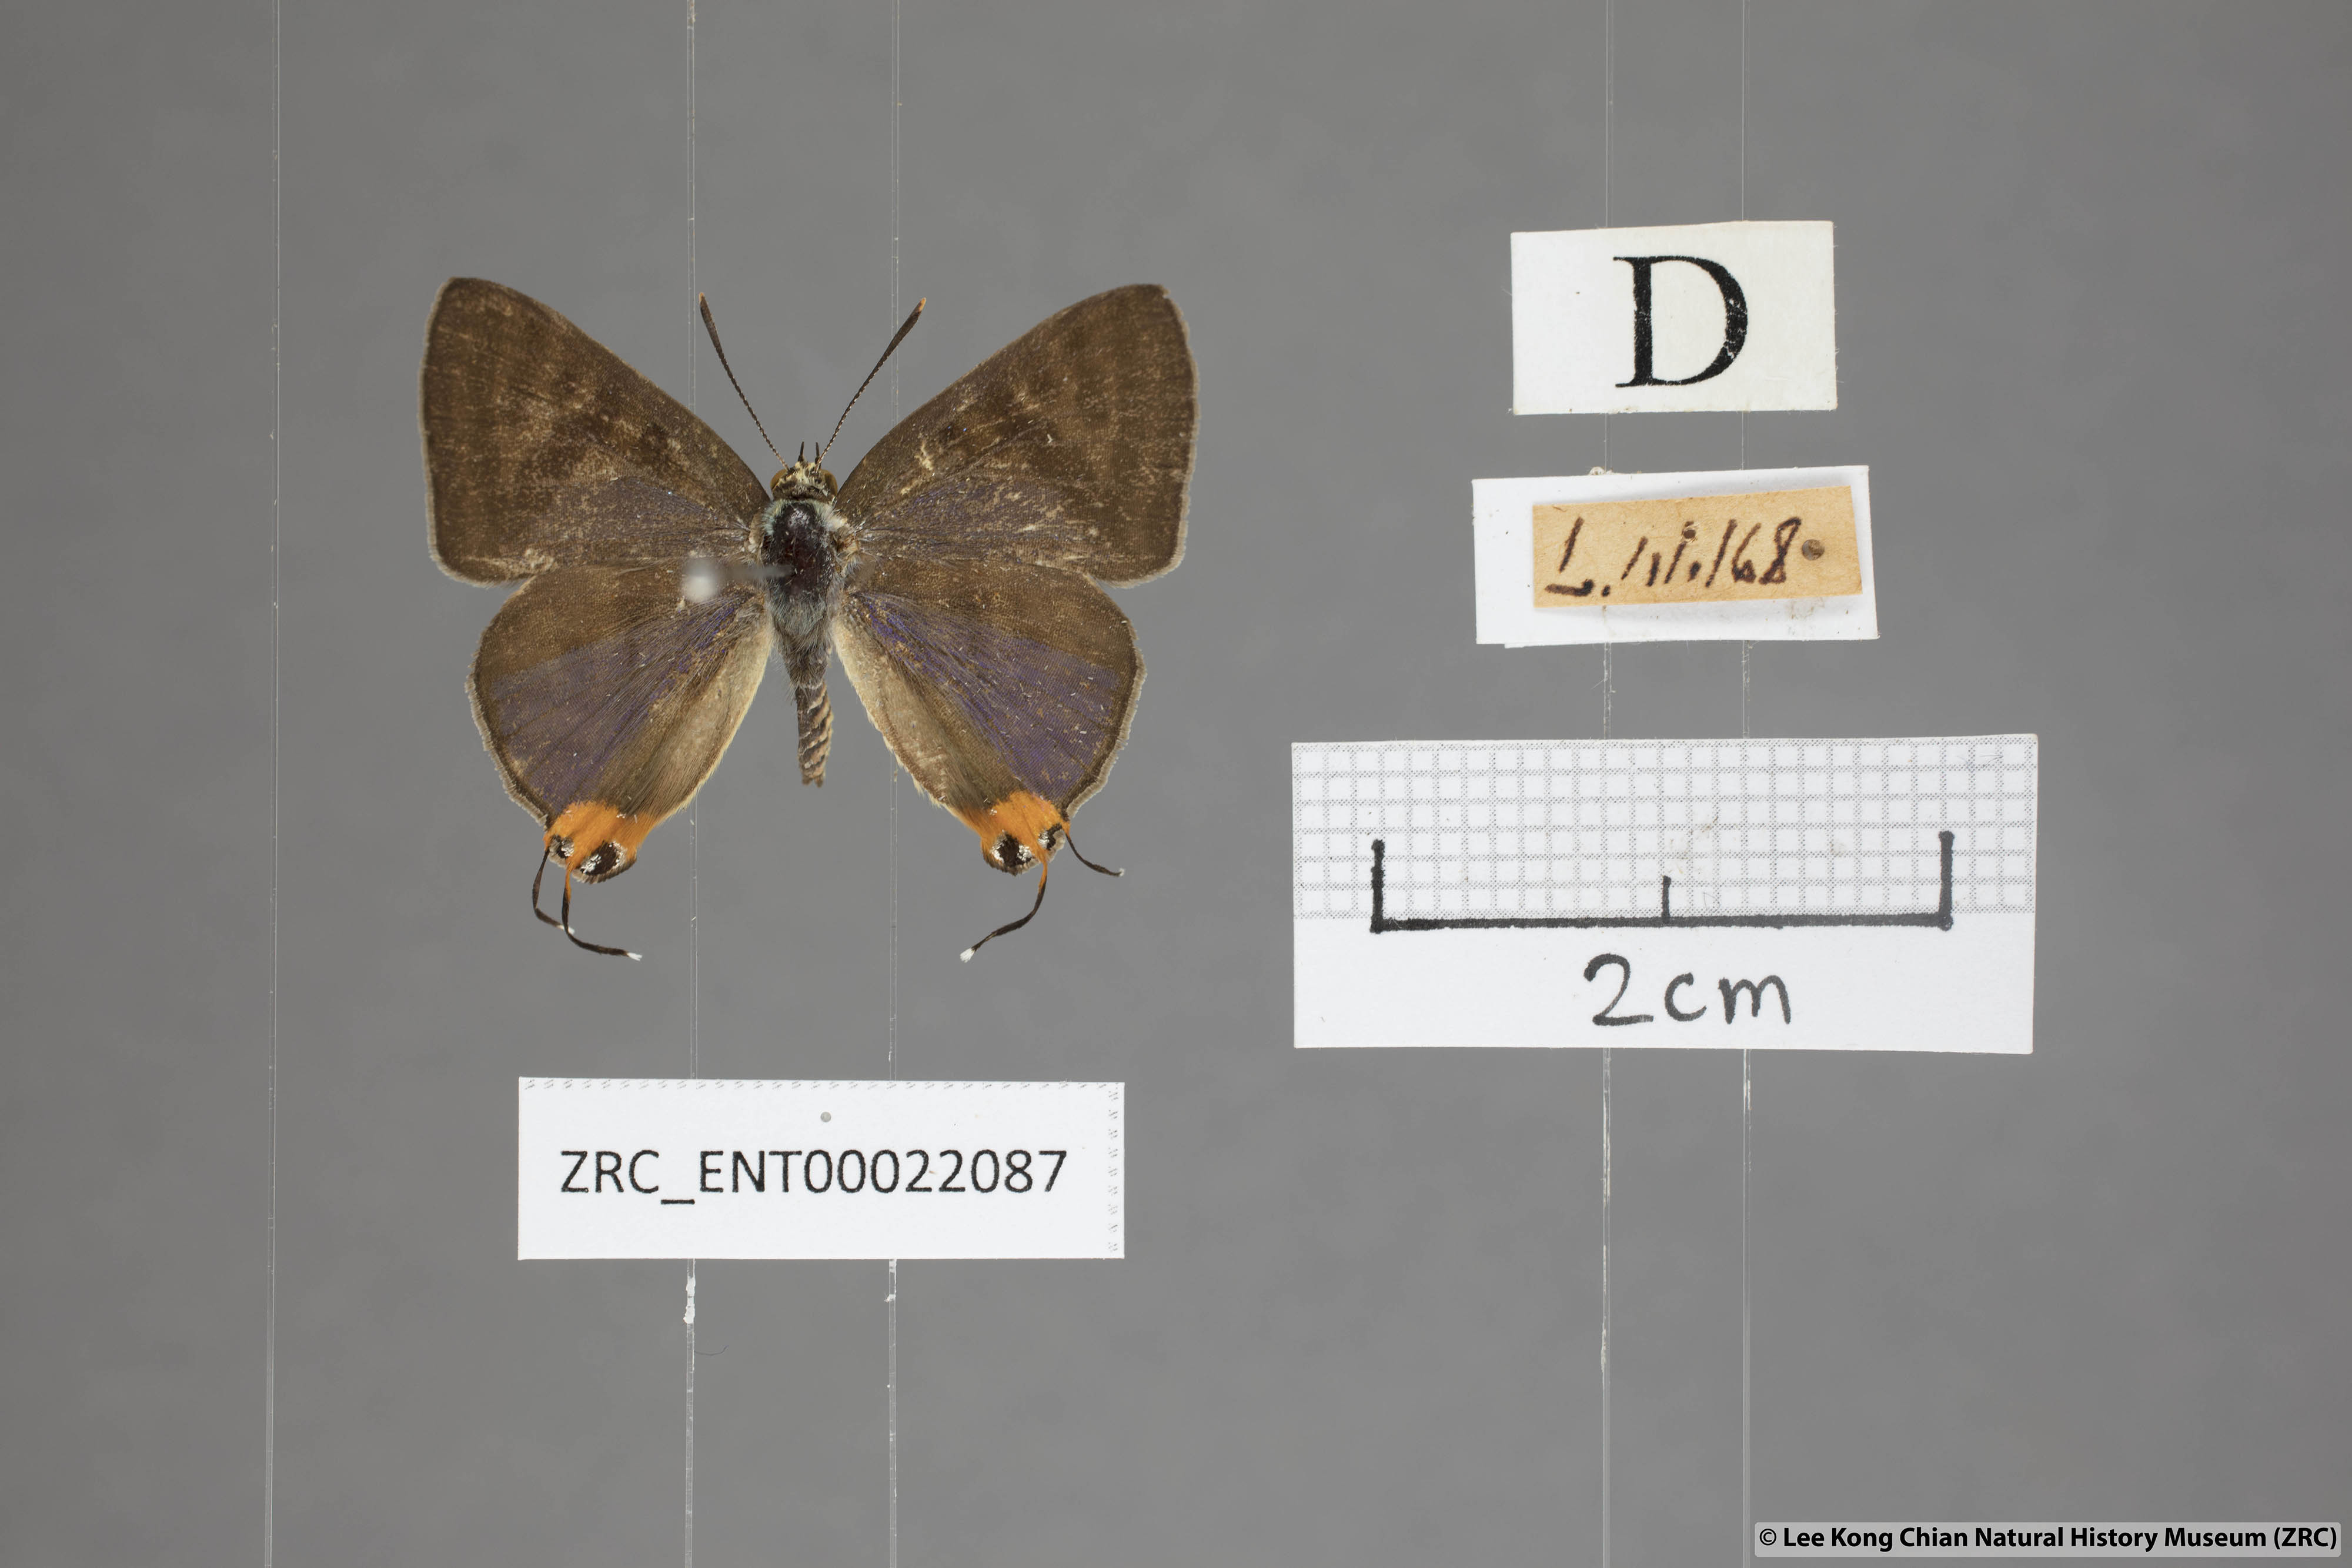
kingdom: Animalia
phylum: Arthropoda
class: Insecta
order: Lepidoptera
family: Lycaenidae
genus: Spindasis
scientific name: Spindasis syama
